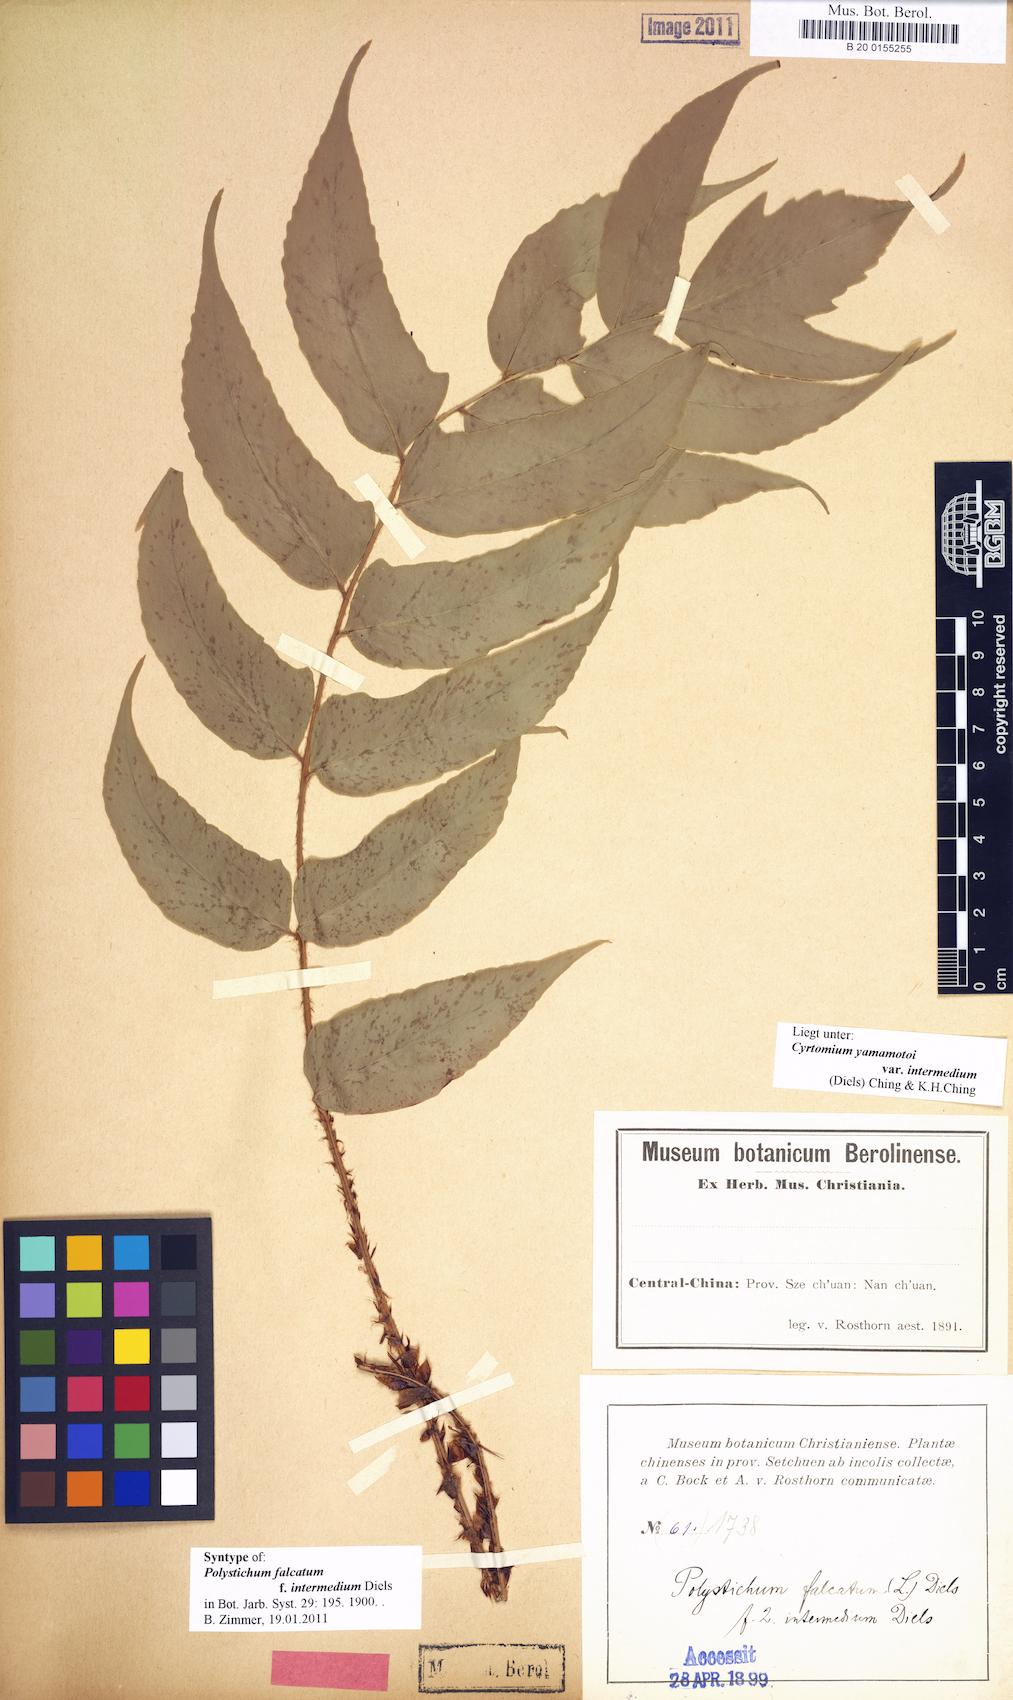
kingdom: Plantae
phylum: Tracheophyta
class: Polypodiopsida
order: Polypodiales
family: Dryopteridaceae
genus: Cyrtomium
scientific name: Cyrtomium yamamotoi
